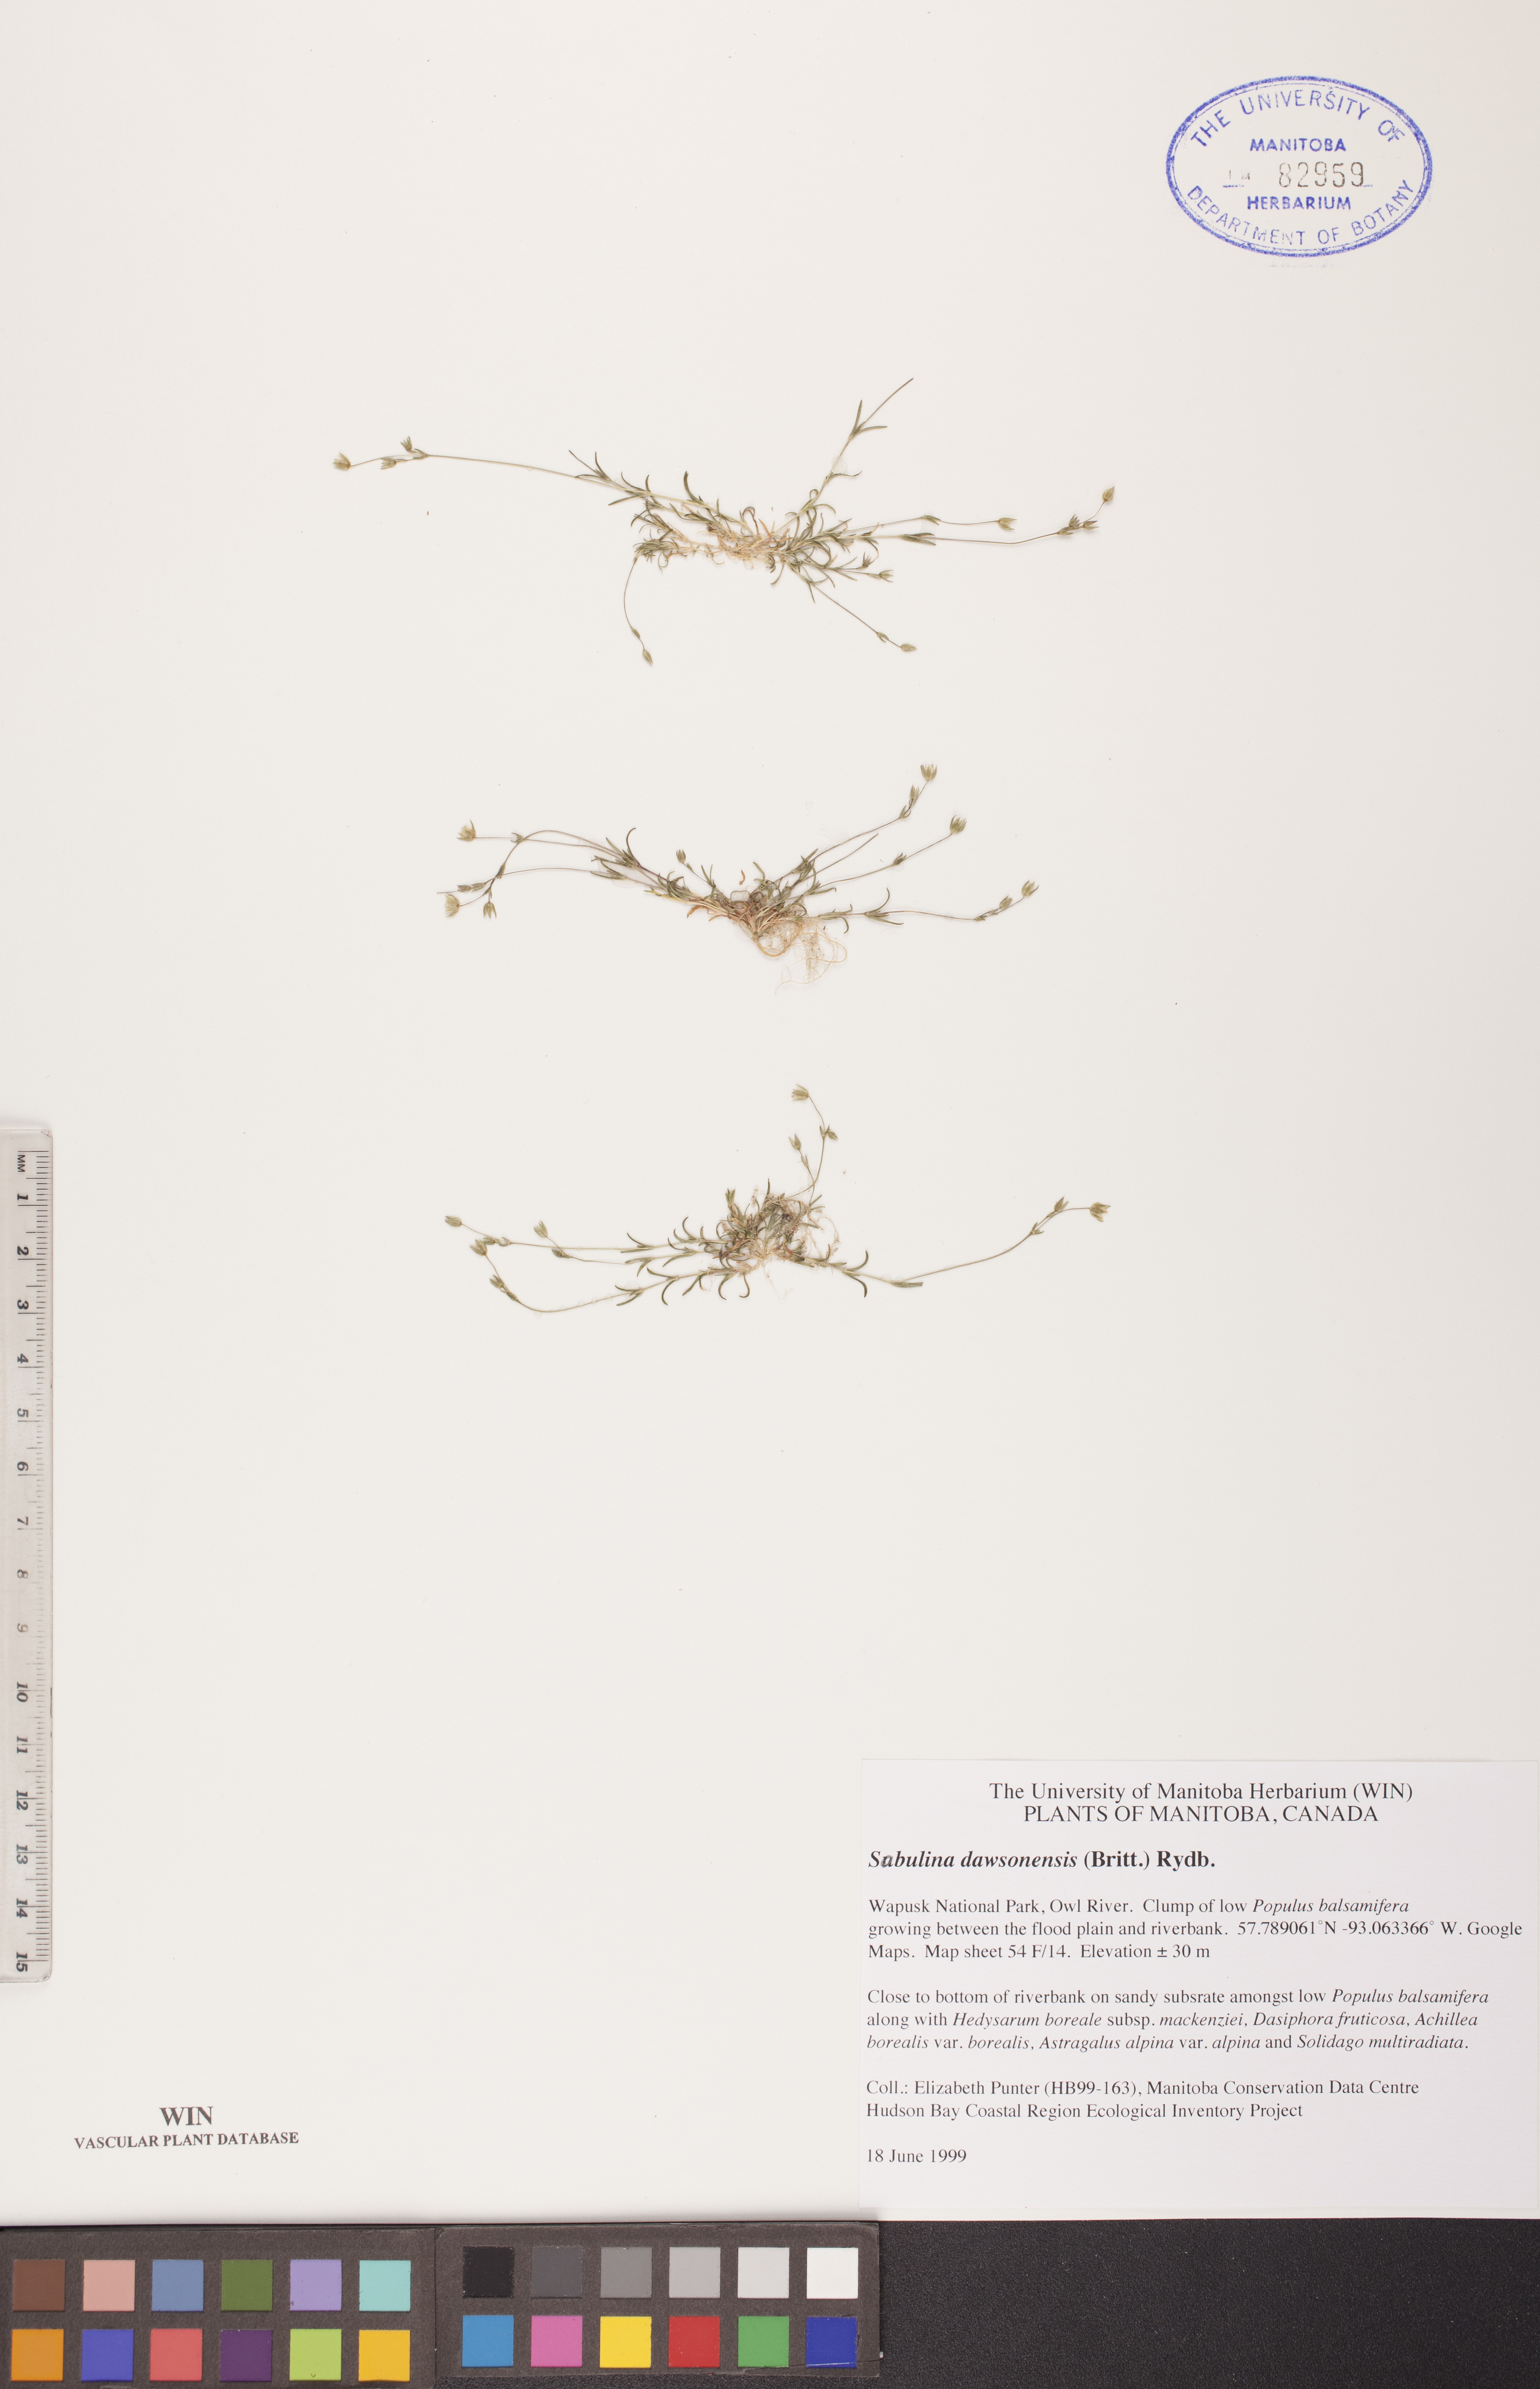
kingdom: Plantae
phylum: Tracheophyta
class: Magnoliopsida
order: Caryophyllales
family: Caryophyllaceae
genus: Sabulina
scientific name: Sabulina dawsonensis
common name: Dawson's cockle
